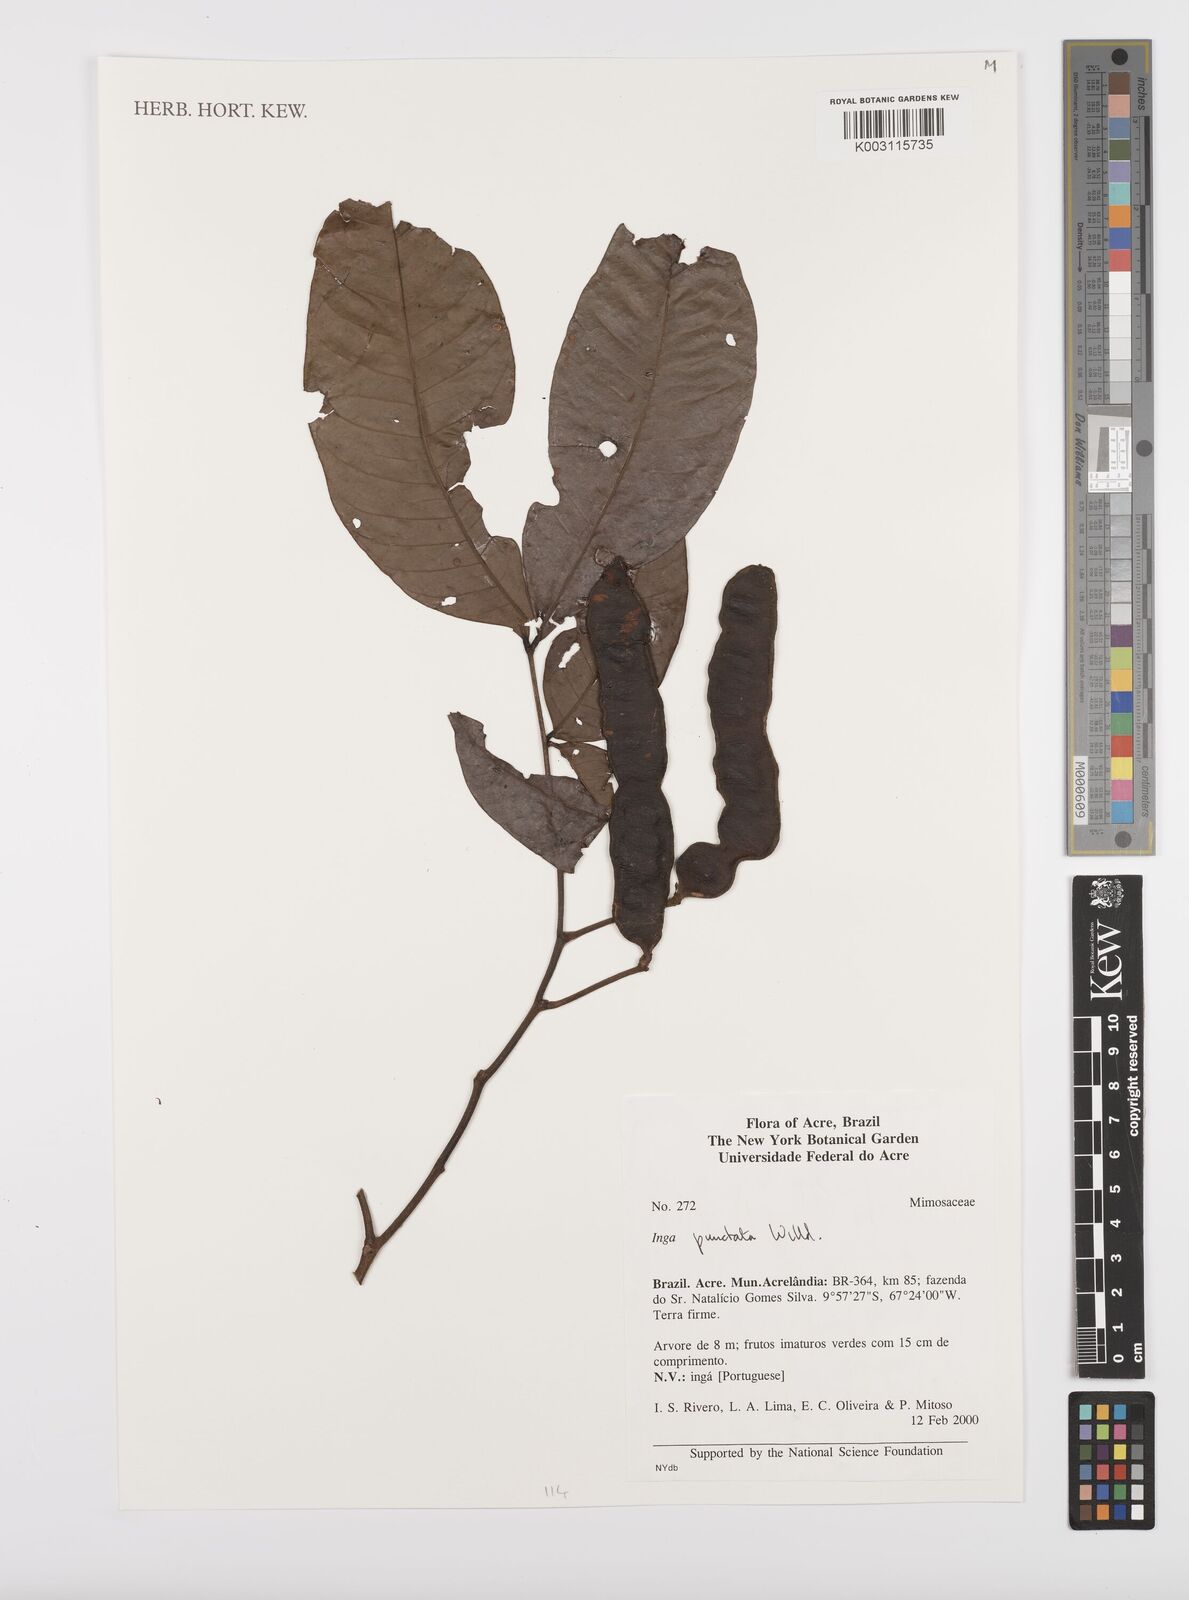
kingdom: Plantae
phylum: Tracheophyta
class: Magnoliopsida
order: Fabales
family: Fabaceae
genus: Inga
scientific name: Inga punctata
